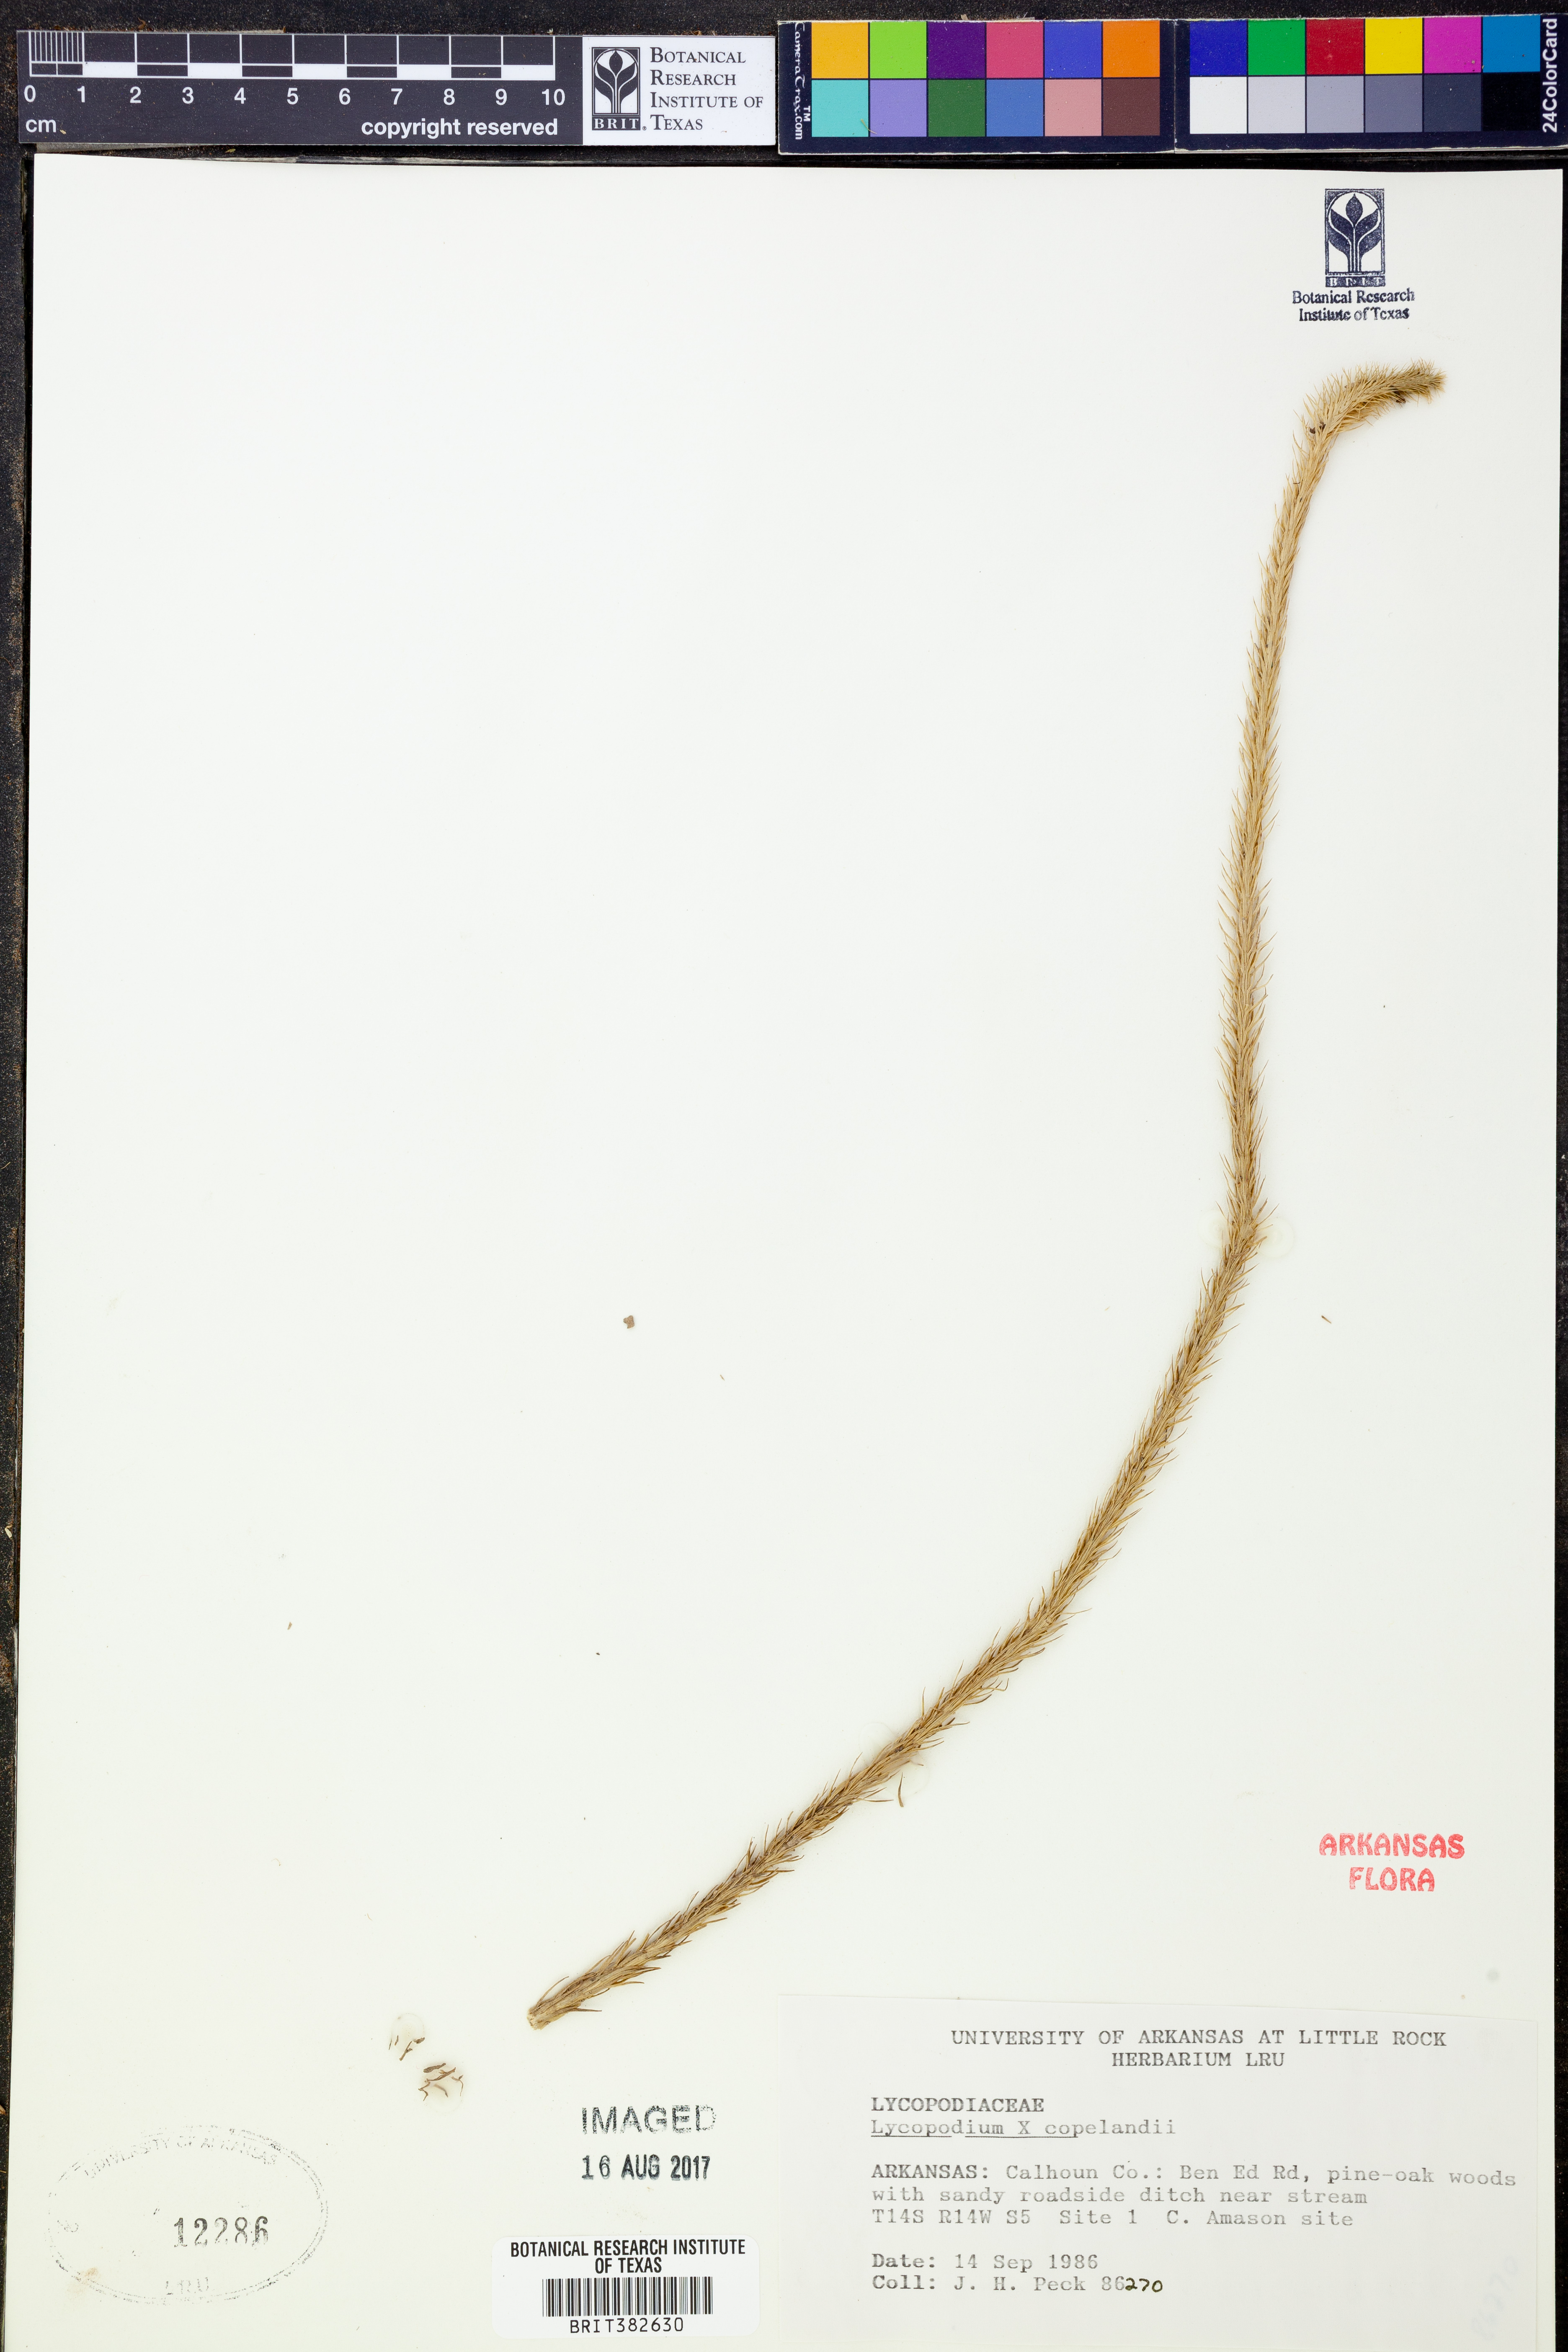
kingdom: Plantae
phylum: Tracheophyta
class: Lycopodiopsida
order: Lycopodiales
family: Lycopodiaceae
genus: Lycopodiella
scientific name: Lycopodiella copelandii
